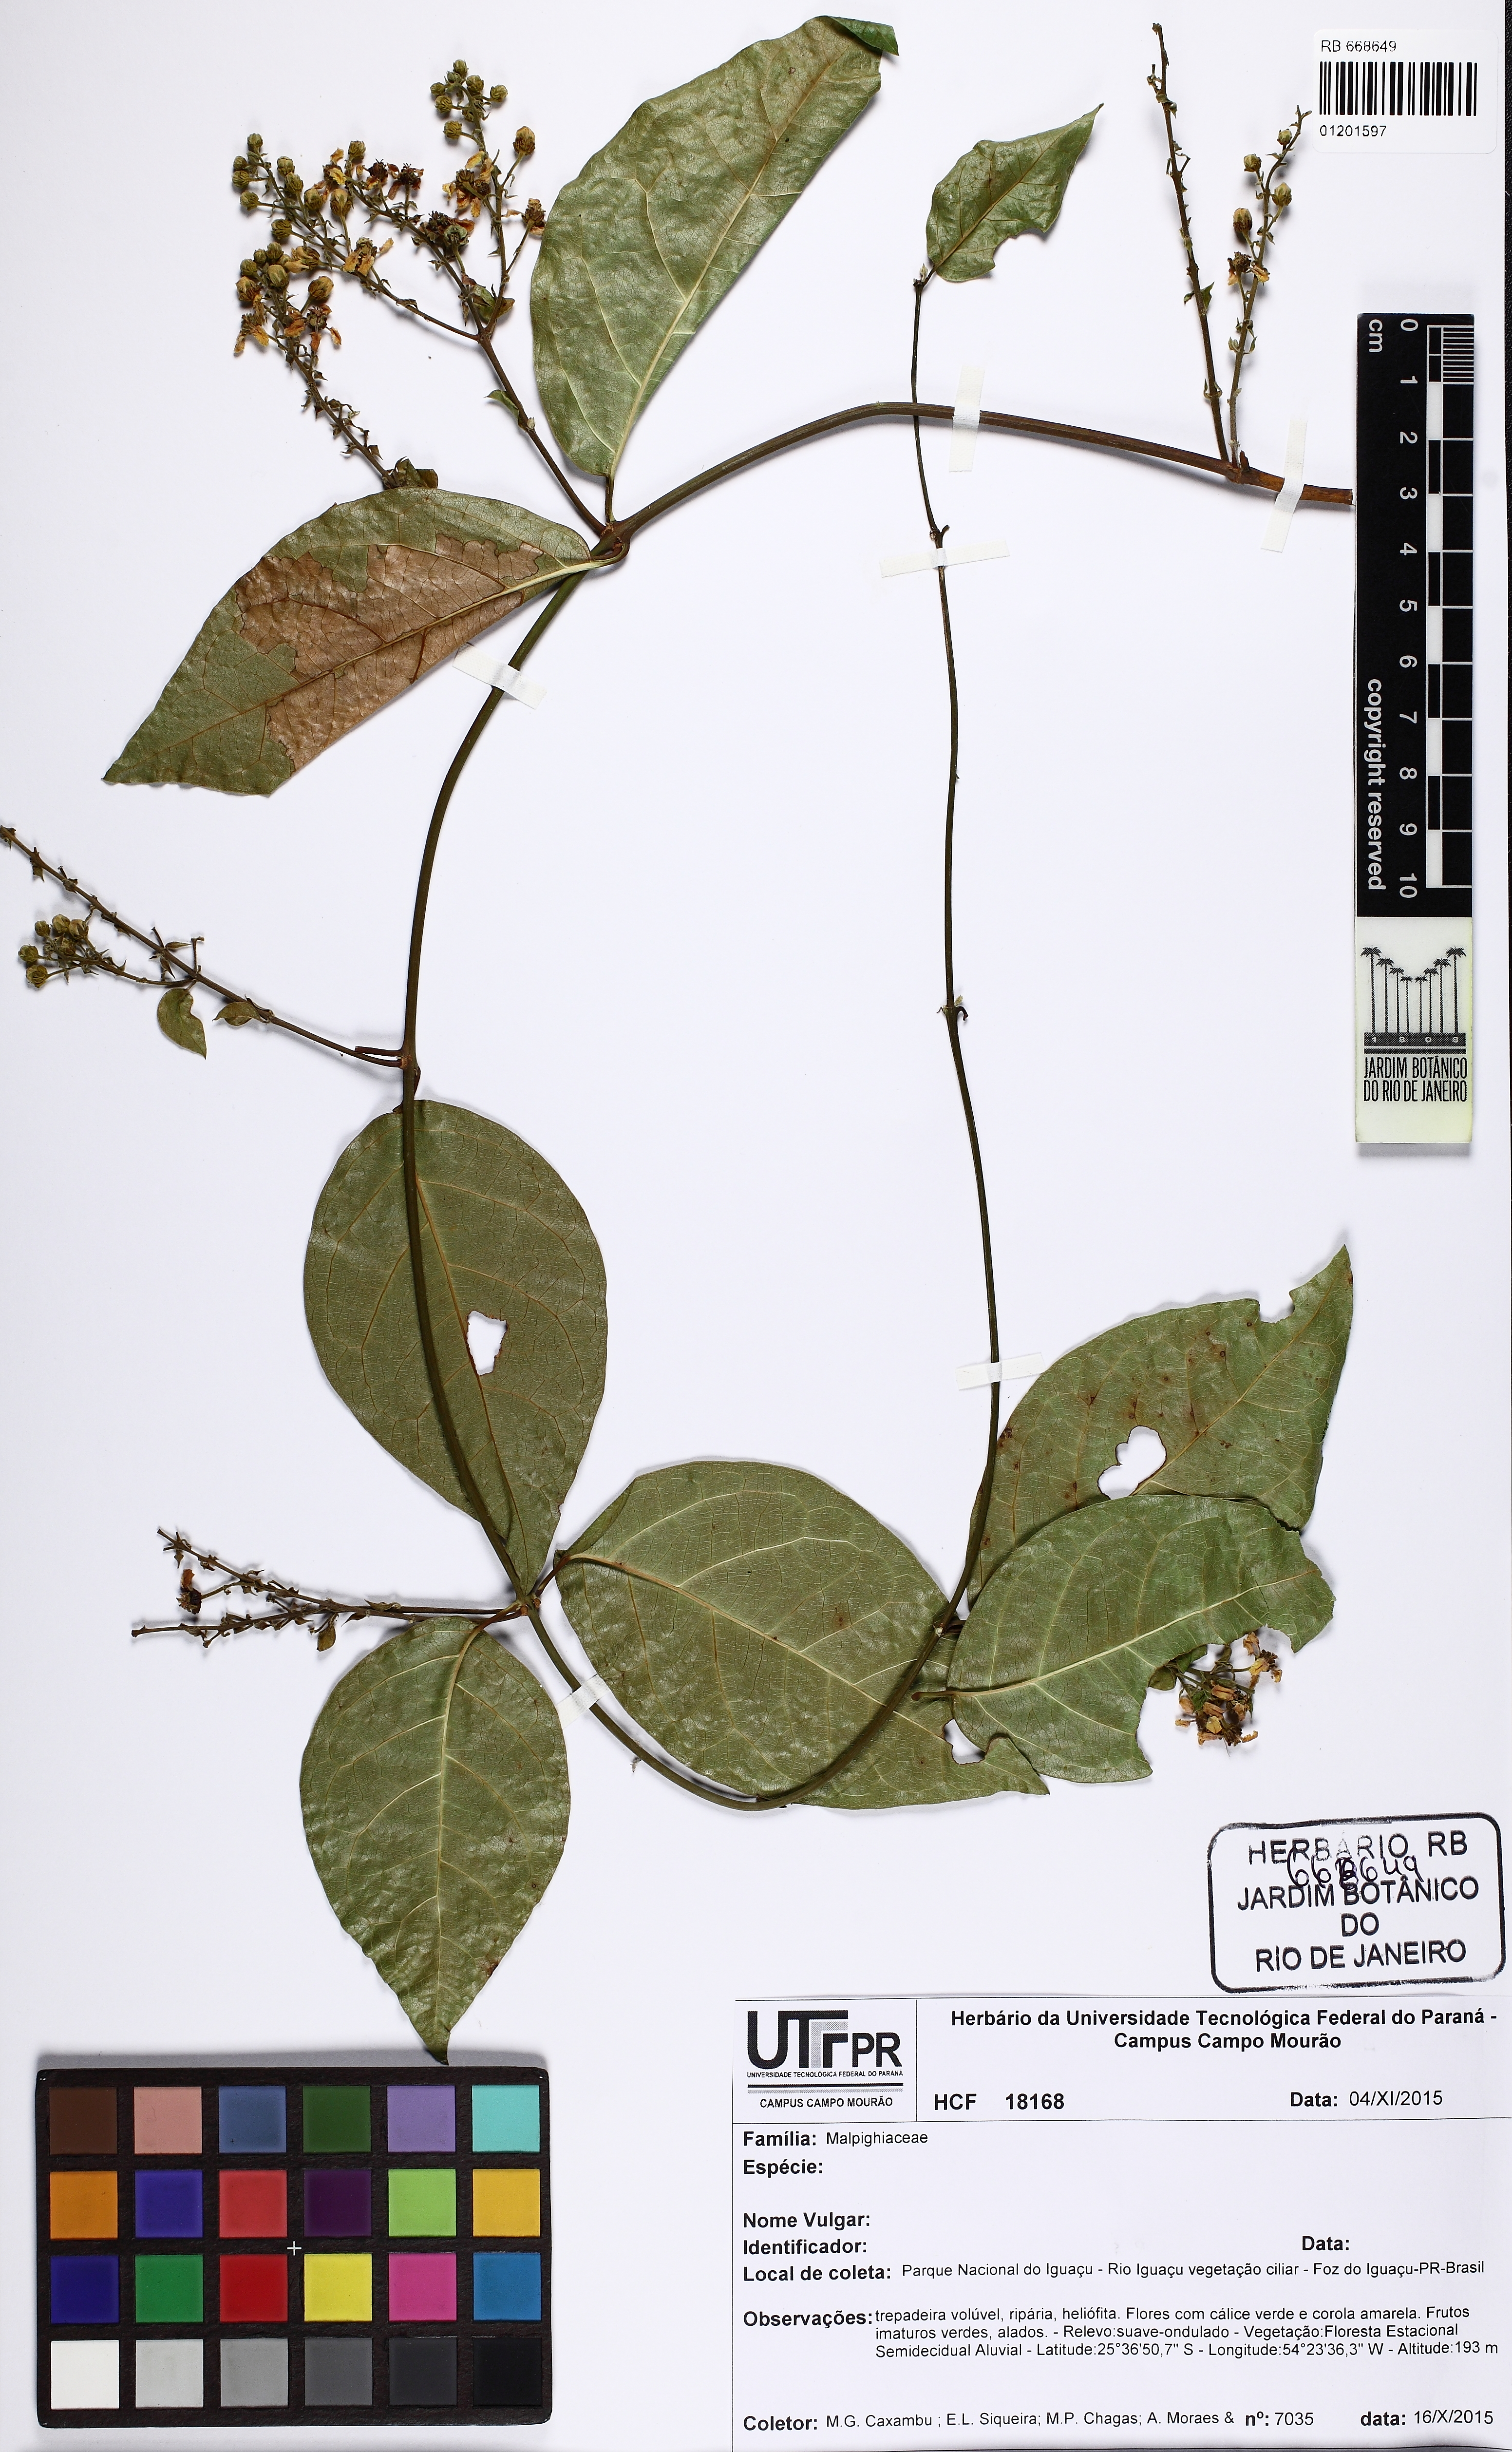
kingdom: Plantae
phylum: Tracheophyta
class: Magnoliopsida
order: Malpighiales
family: Malpighiaceae
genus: Amorimia
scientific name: Amorimia
